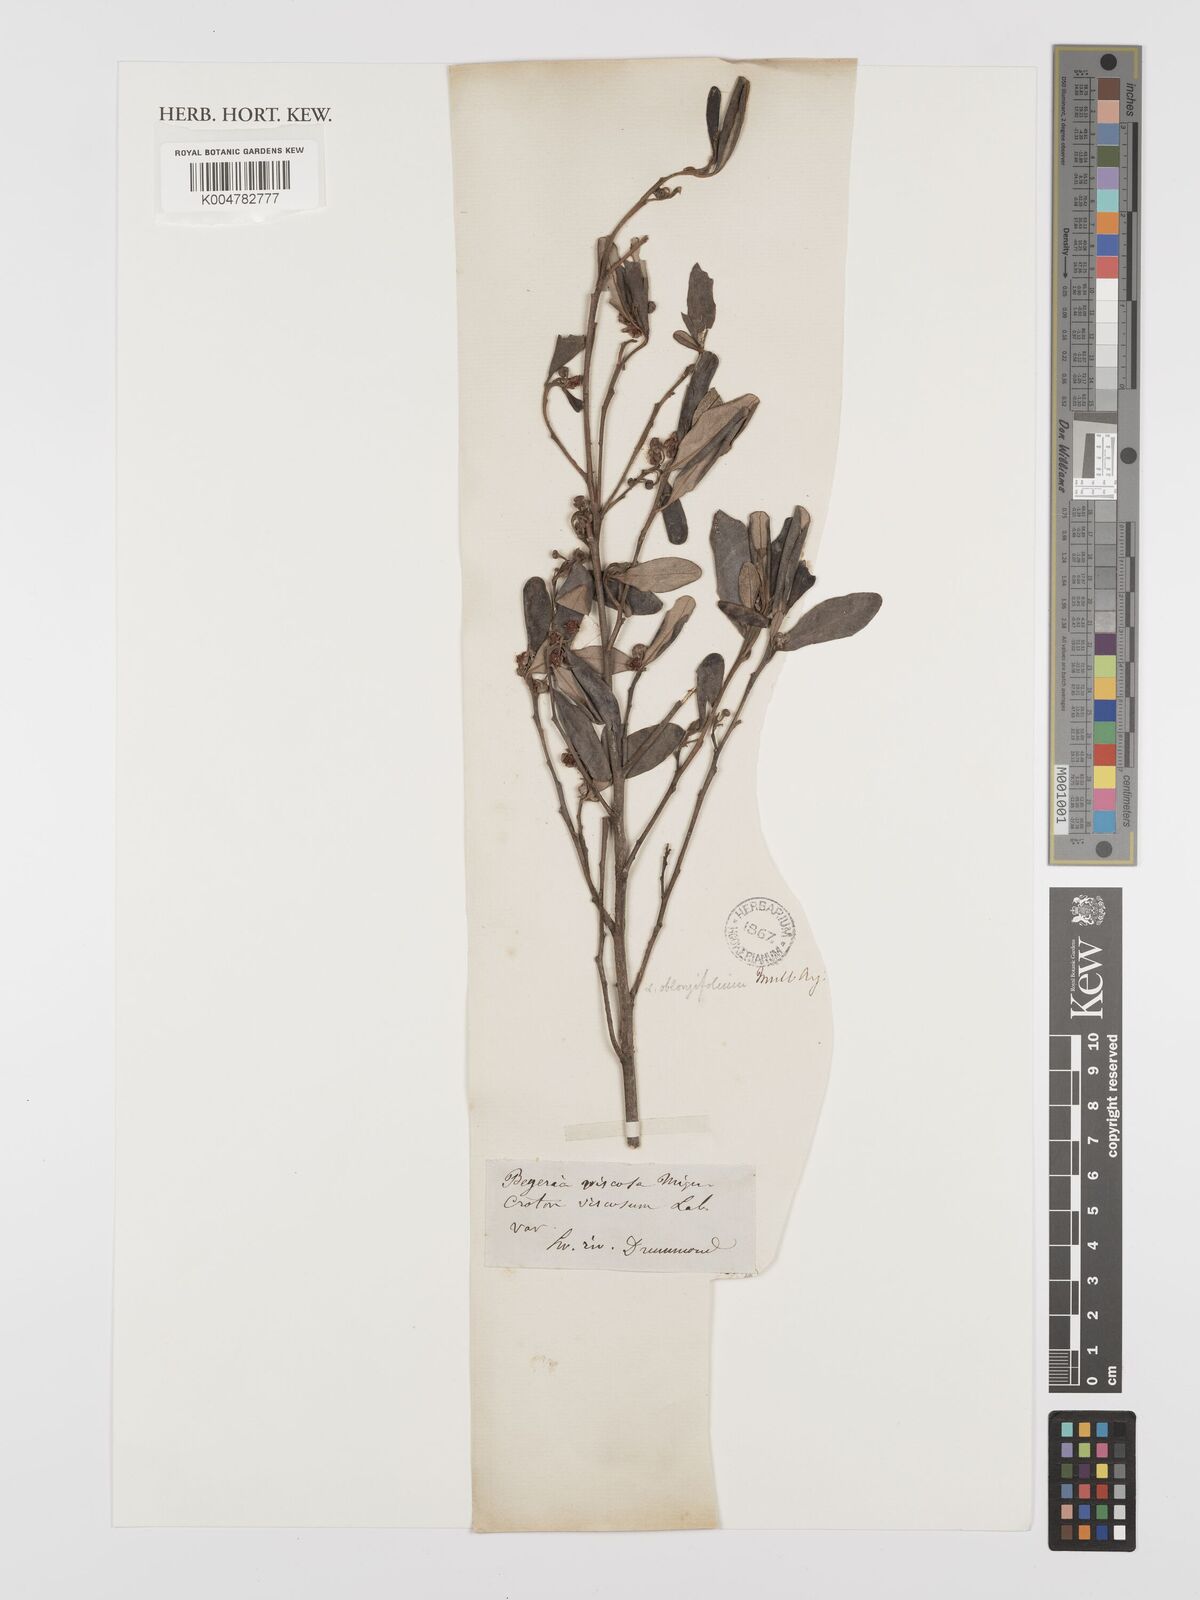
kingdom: Plantae
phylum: Tracheophyta
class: Magnoliopsida
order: Malpighiales
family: Euphorbiaceae
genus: Beyeria
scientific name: Beyeria viscosa
